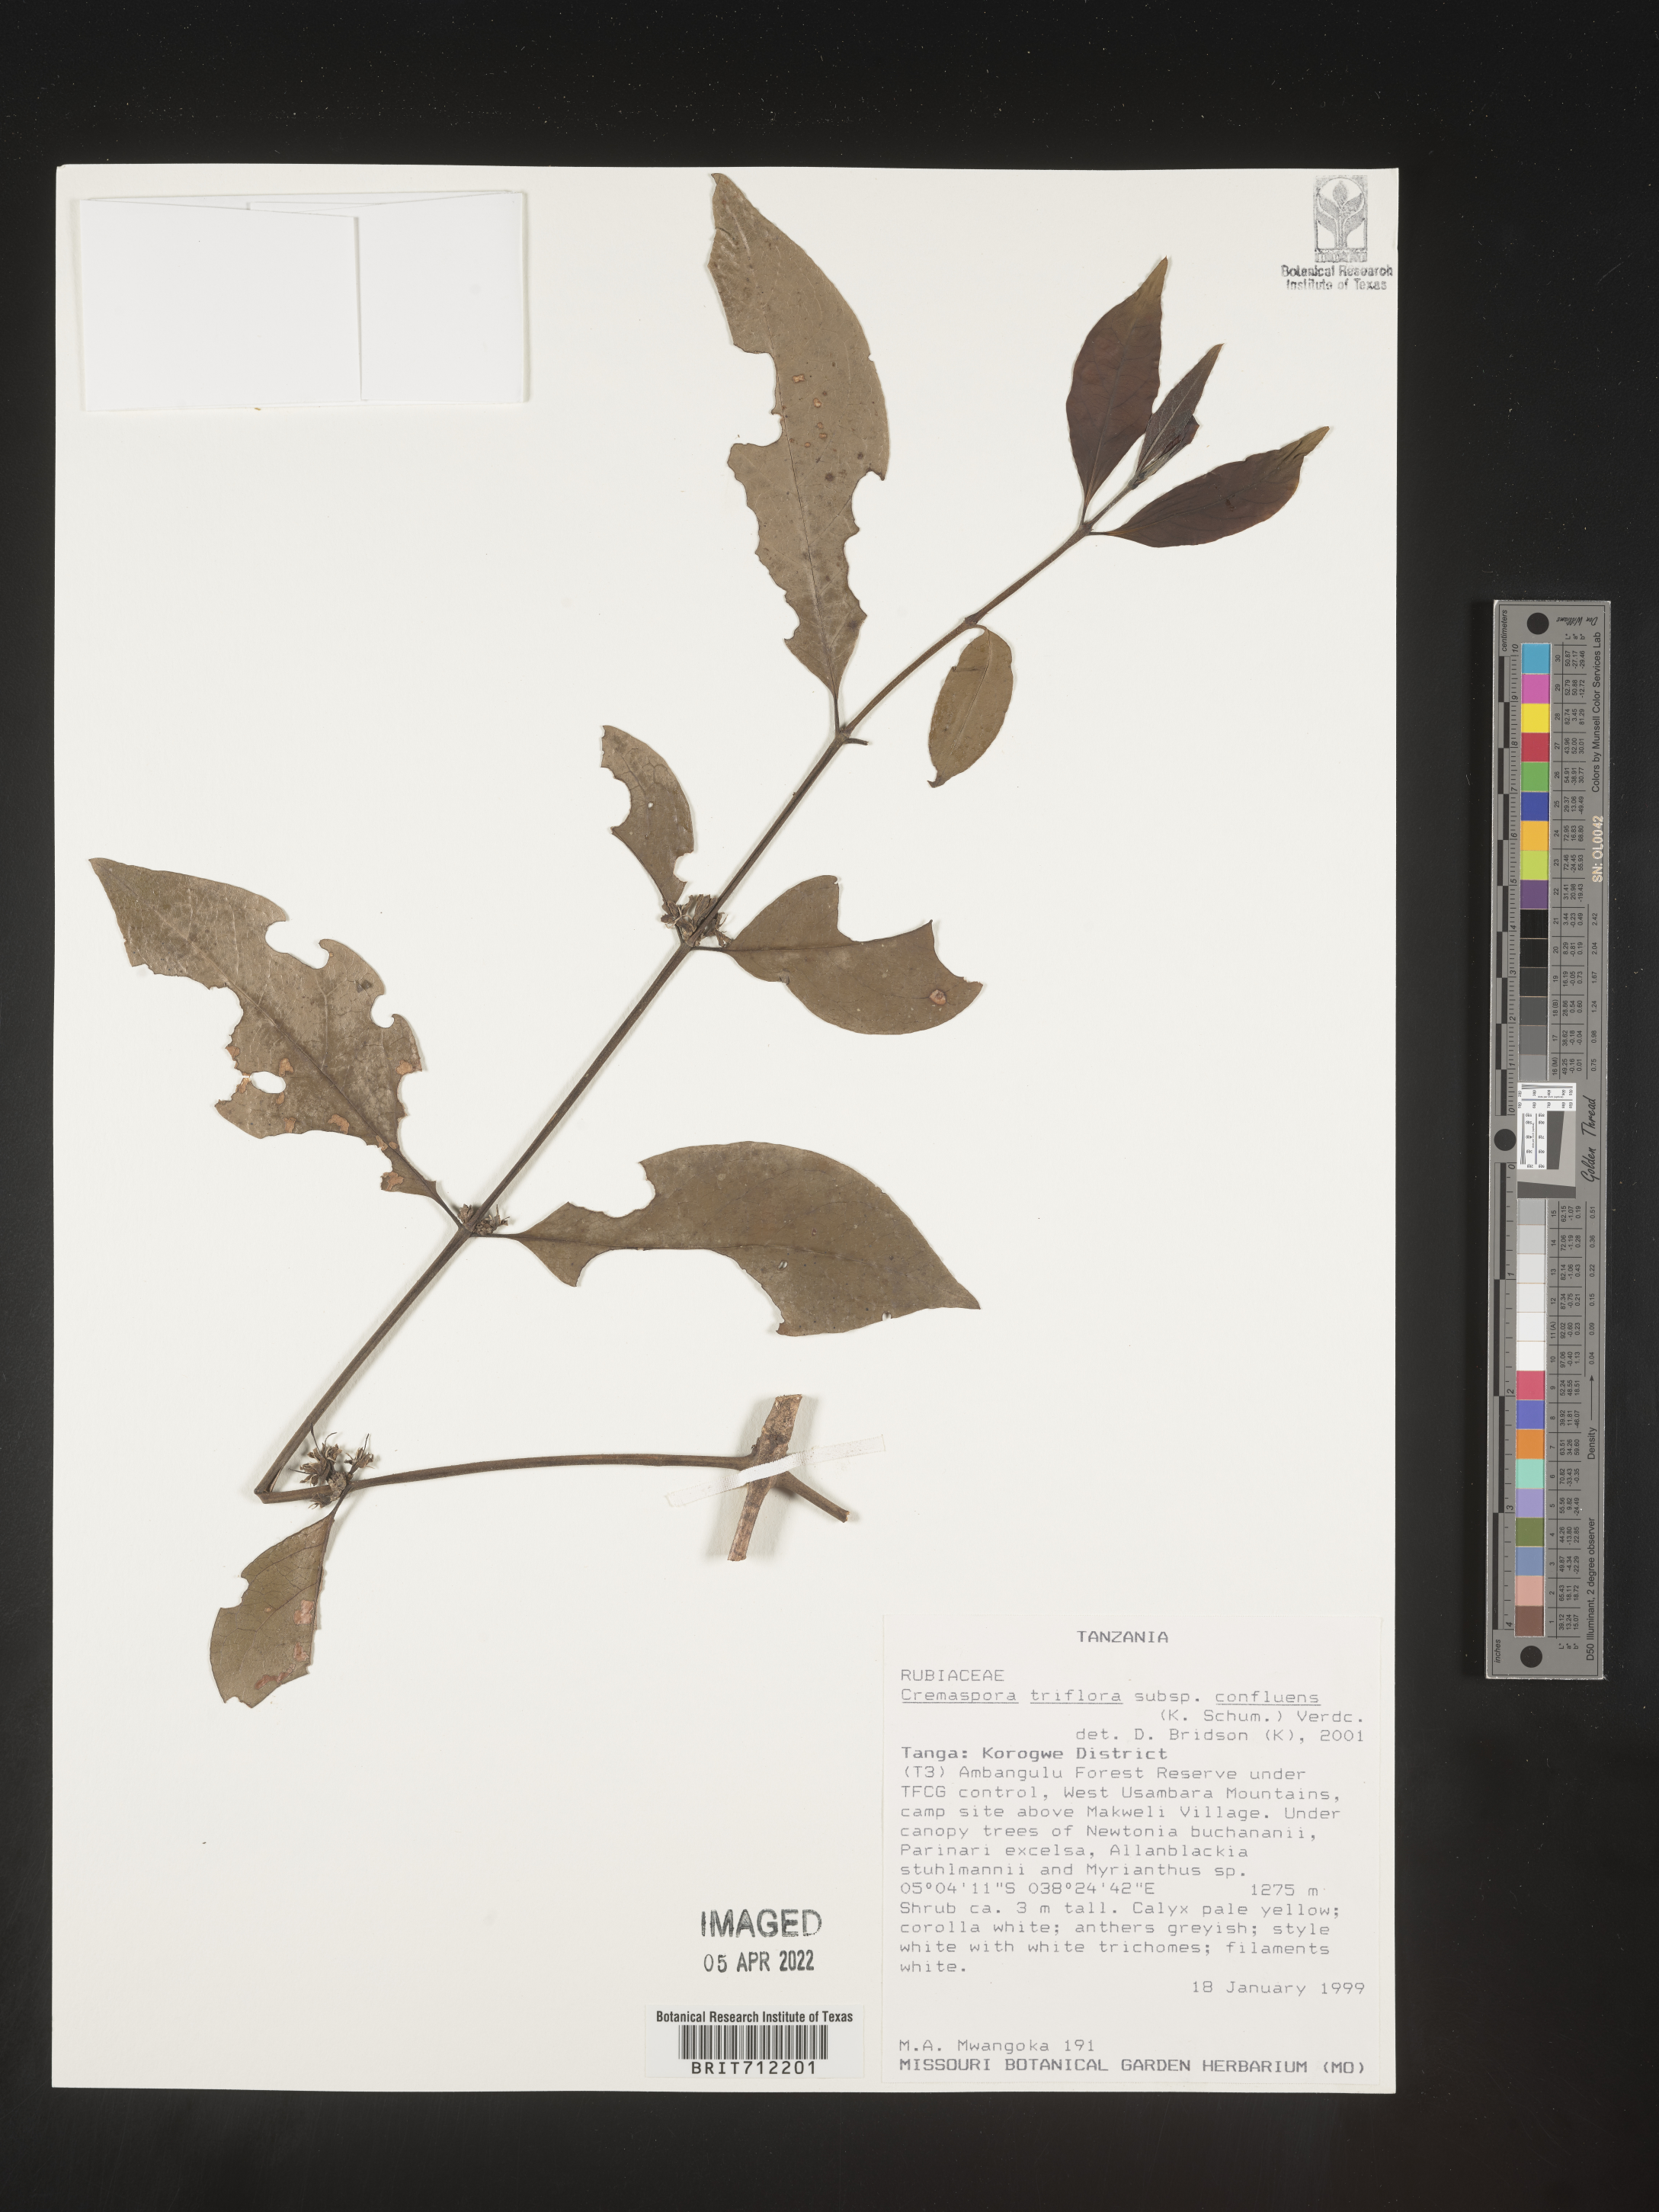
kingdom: Plantae
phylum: Tracheophyta
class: Magnoliopsida
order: Gentianales
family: Rubiaceae
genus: Cremaspora
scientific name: Cremaspora
